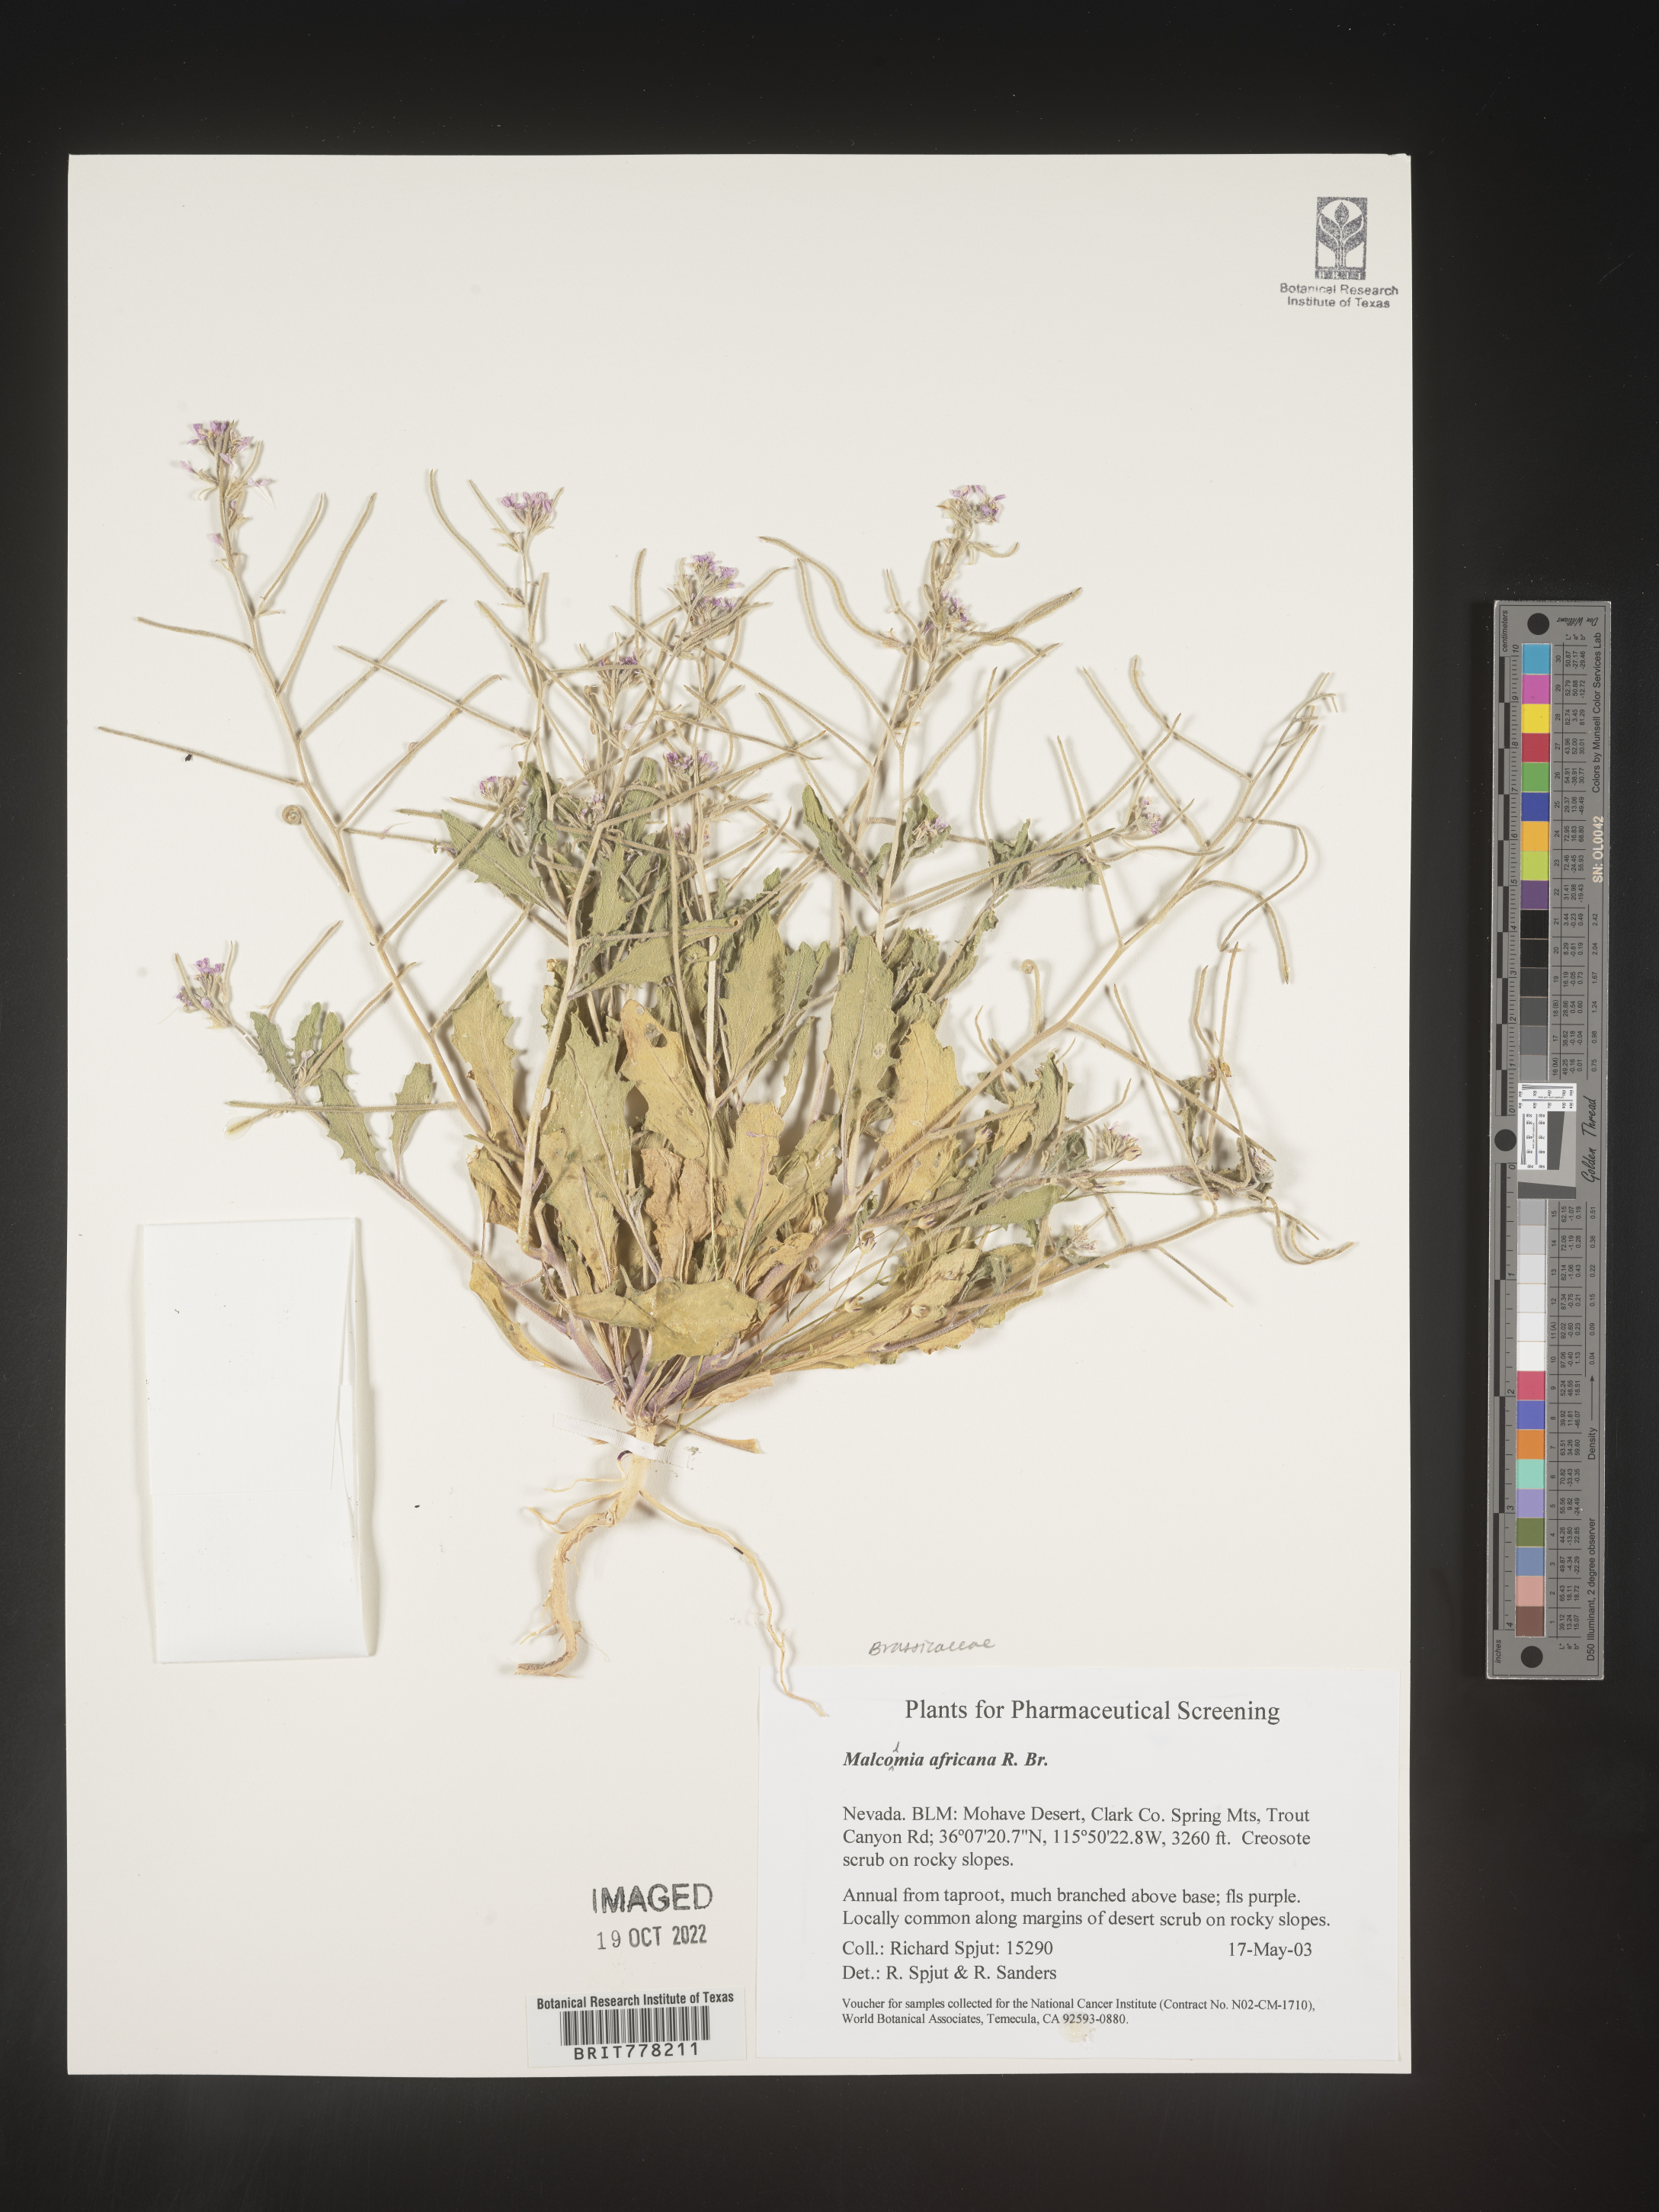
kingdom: Plantae
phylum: Tracheophyta
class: Magnoliopsida
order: Brassicales
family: Brassicaceae
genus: Malcolmia
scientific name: Malcolmia
